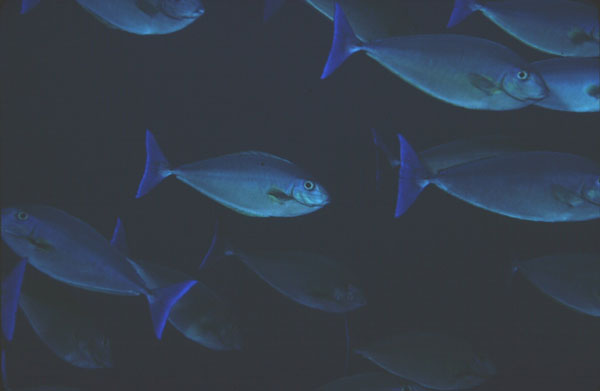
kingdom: Animalia
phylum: Chordata
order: Perciformes
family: Acanthuridae
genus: Naso
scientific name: Naso caeruleacauda
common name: Bluetail unicornfish
